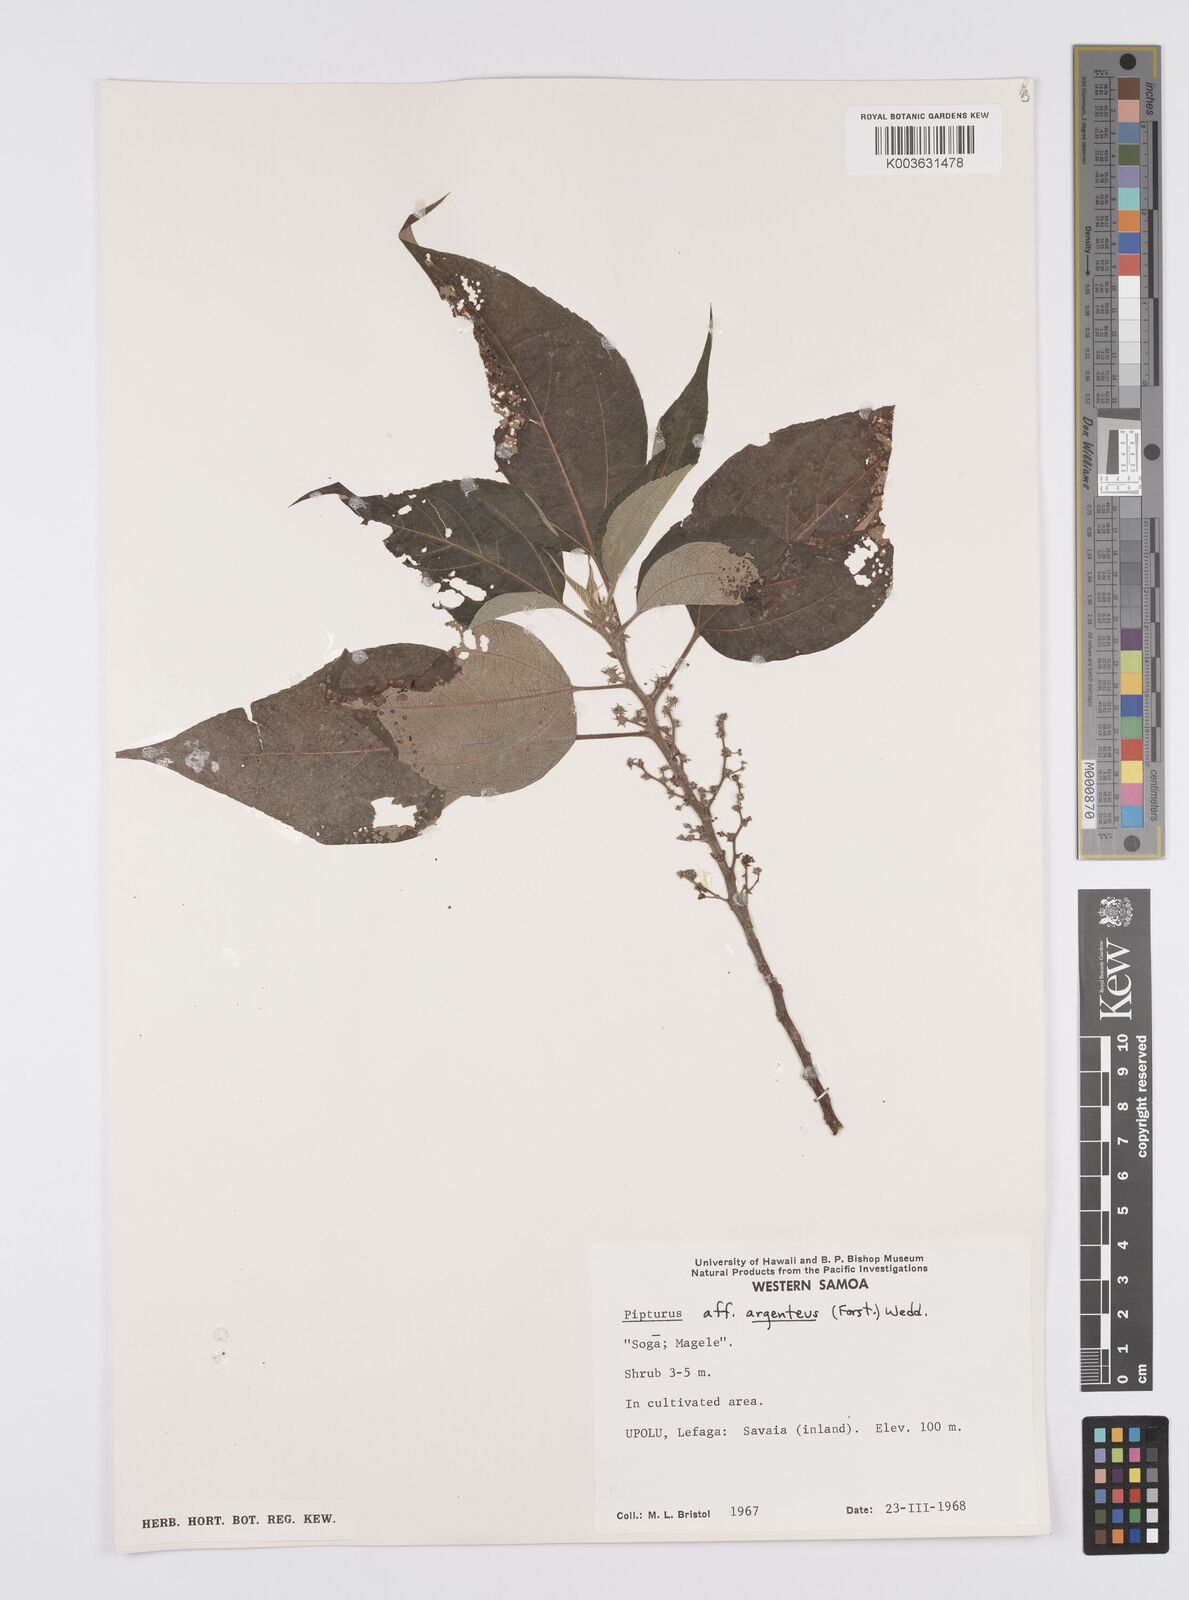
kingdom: Plantae
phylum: Tracheophyta
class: Magnoliopsida
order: Rosales
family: Urticaceae
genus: Pipturus
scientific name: Pipturus argenteus
